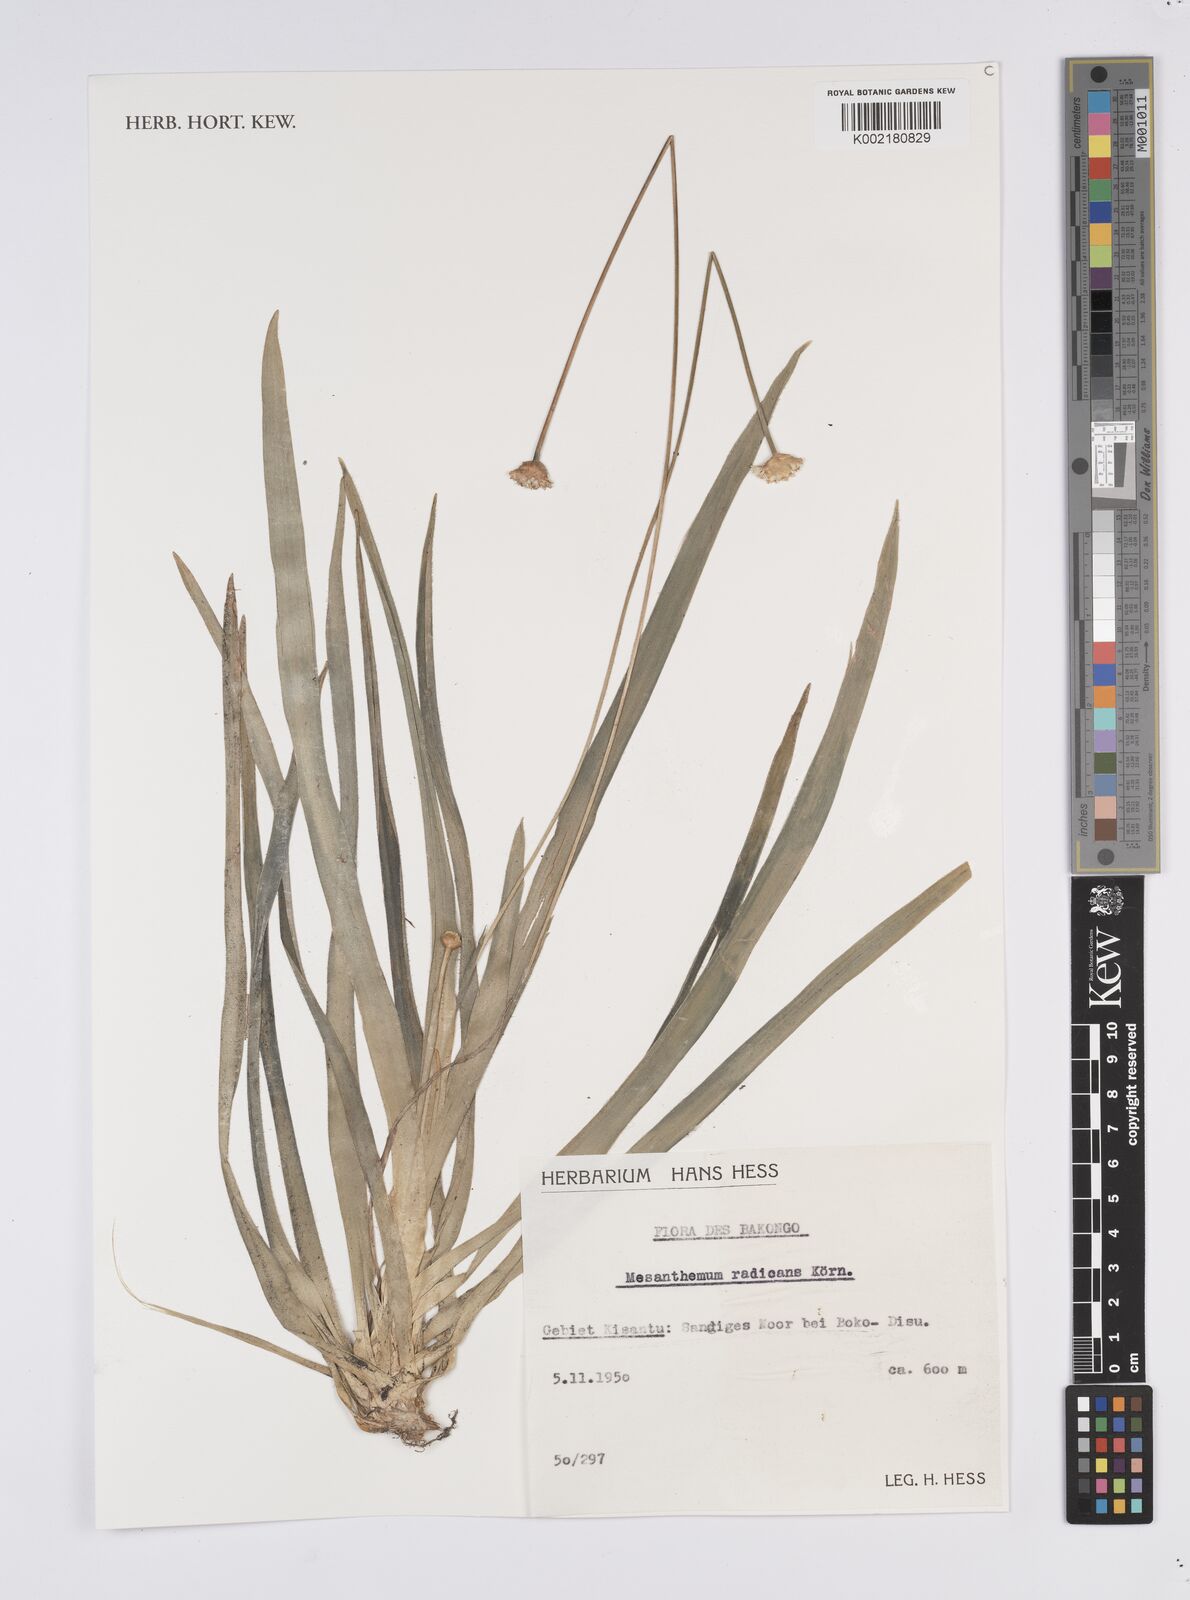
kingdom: Plantae
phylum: Tracheophyta
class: Liliopsida
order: Poales
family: Eriocaulaceae
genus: Mesanthemum
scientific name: Mesanthemum radicans
